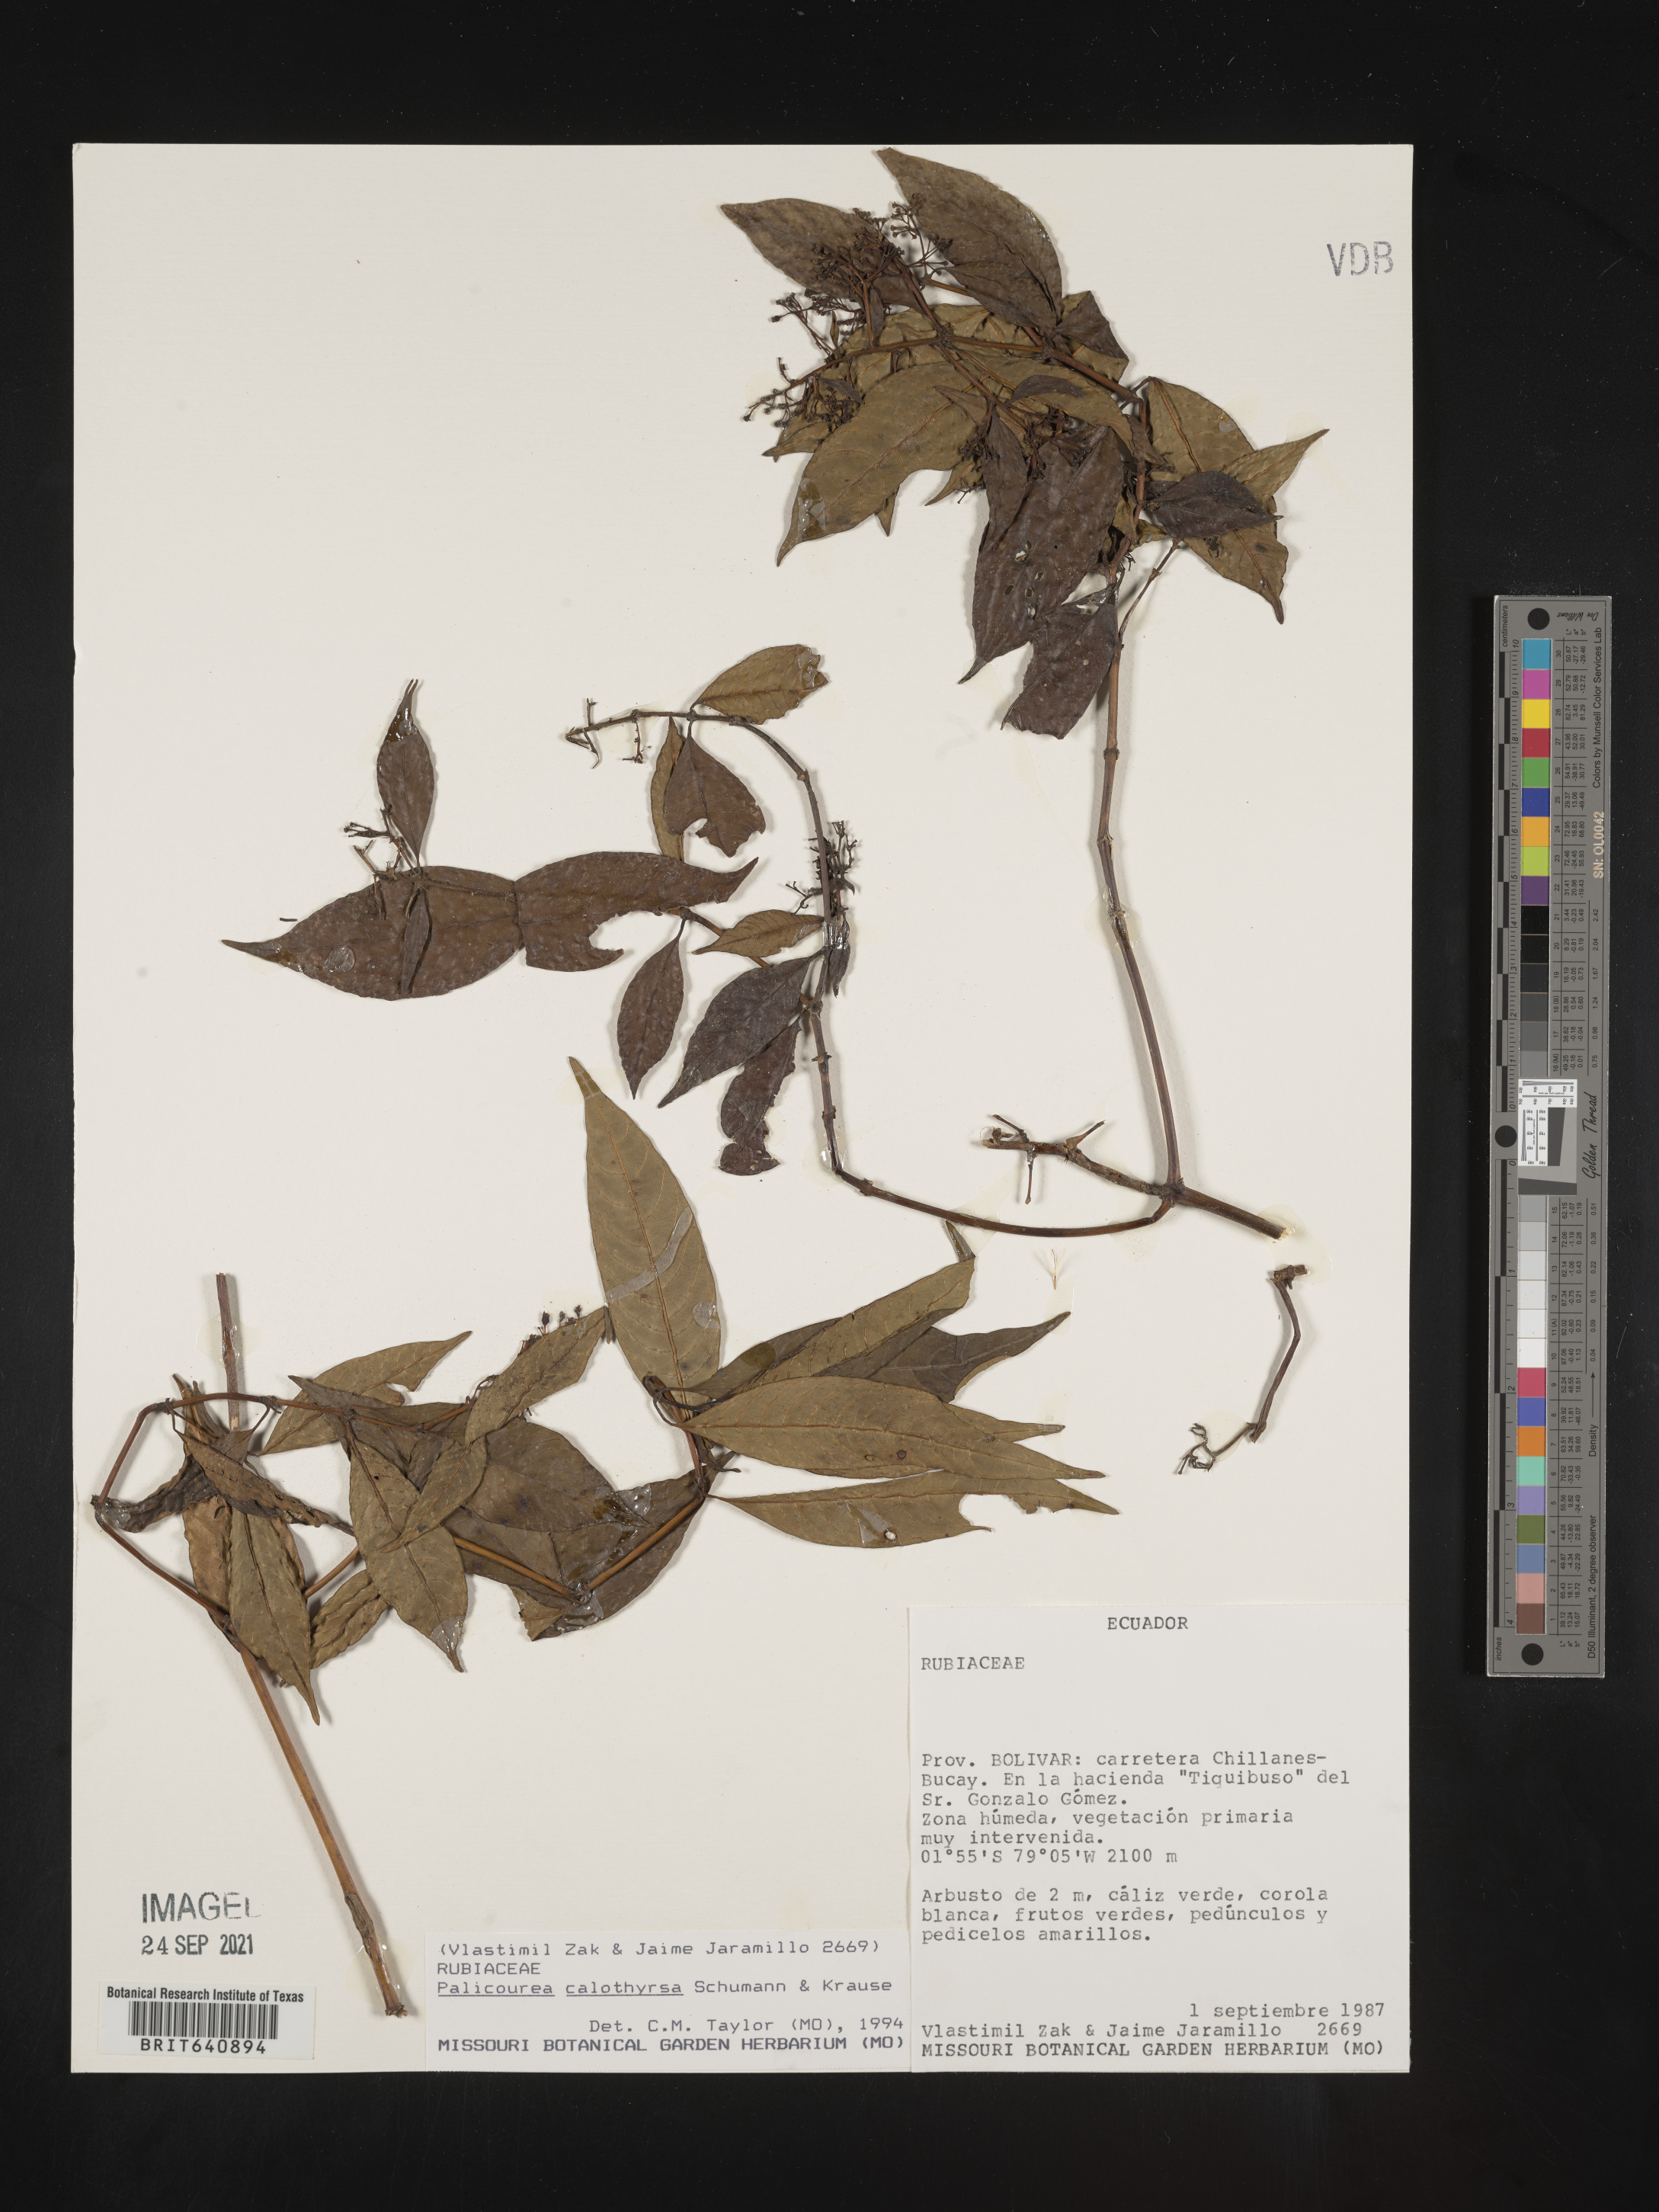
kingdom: Plantae
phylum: Tracheophyta
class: Magnoliopsida
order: Gentianales
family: Rubiaceae
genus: Palicourea
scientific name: Palicourea
